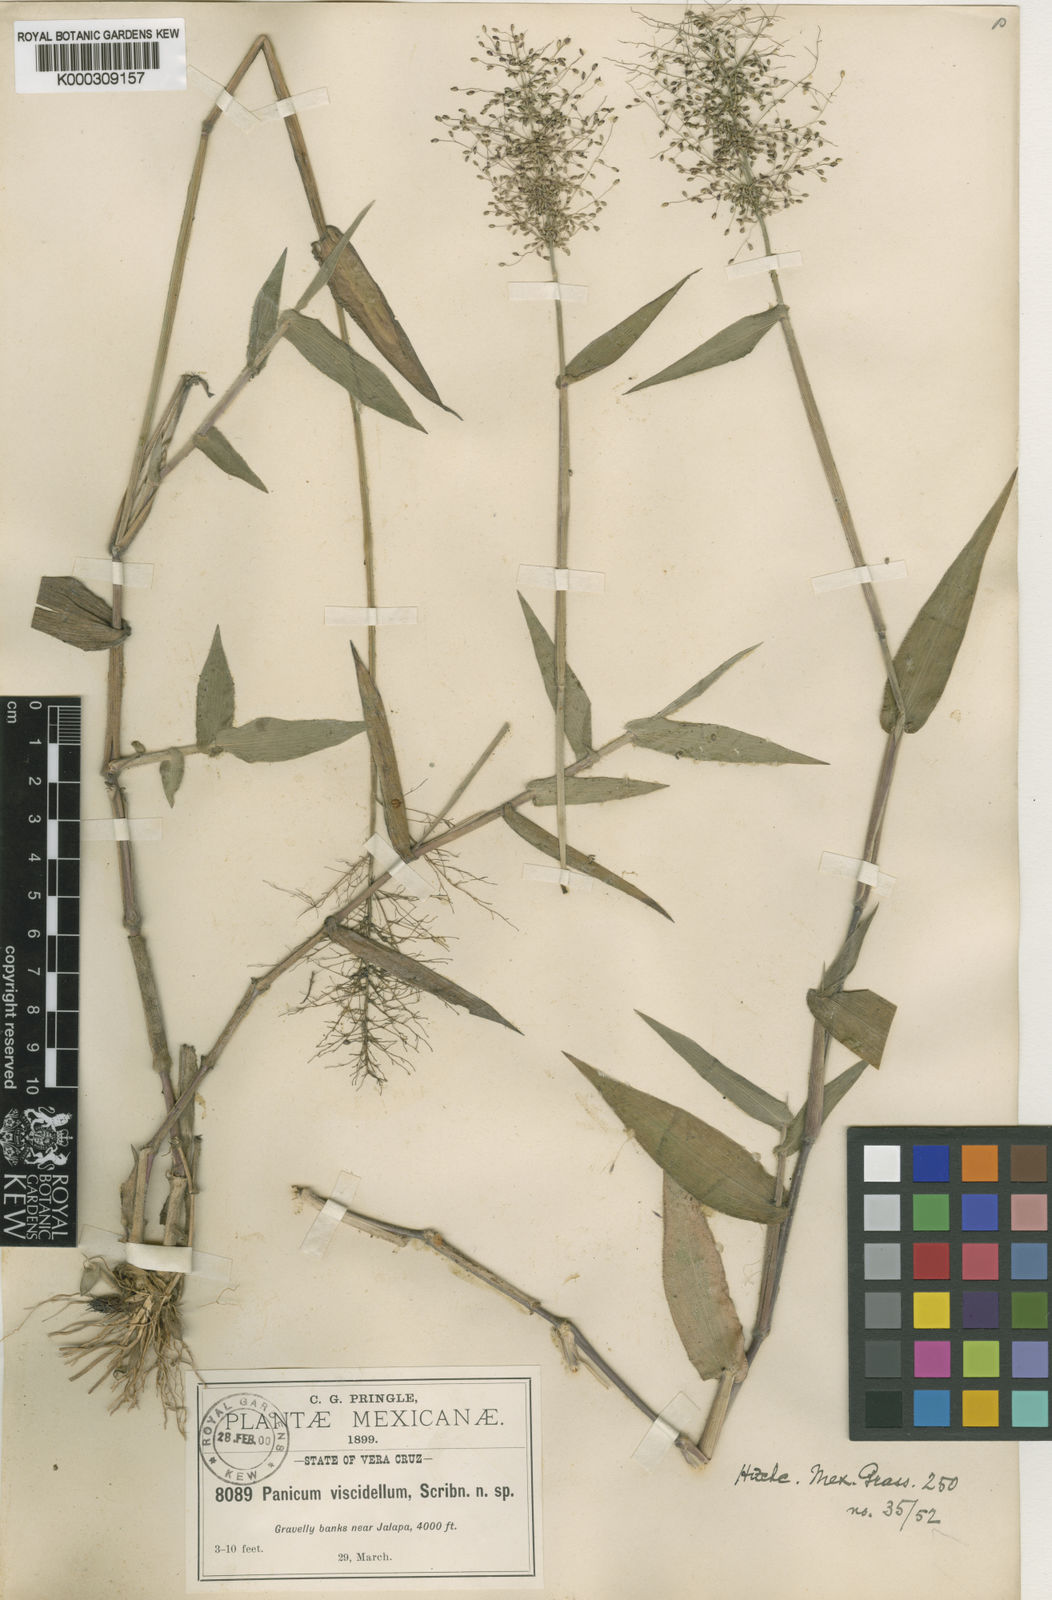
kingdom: Plantae
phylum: Tracheophyta
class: Liliopsida
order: Poales
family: Poaceae
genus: Dichanthelium
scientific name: Dichanthelium viscidellum
